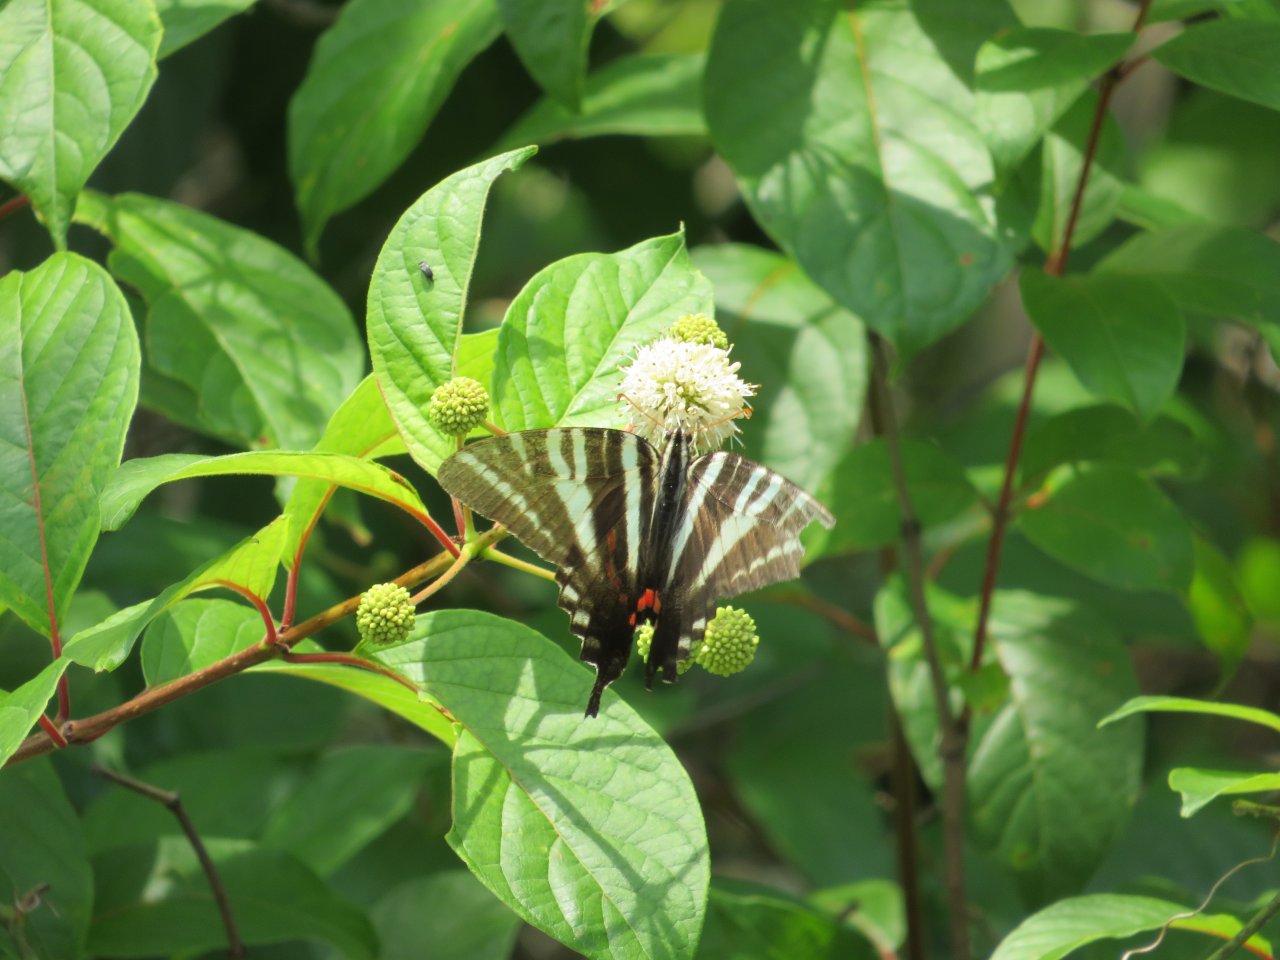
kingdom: Animalia
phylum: Arthropoda
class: Insecta
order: Lepidoptera
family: Papilionidae
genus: Protographium
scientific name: Protographium marcellus
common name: Zebra Swallowtail
